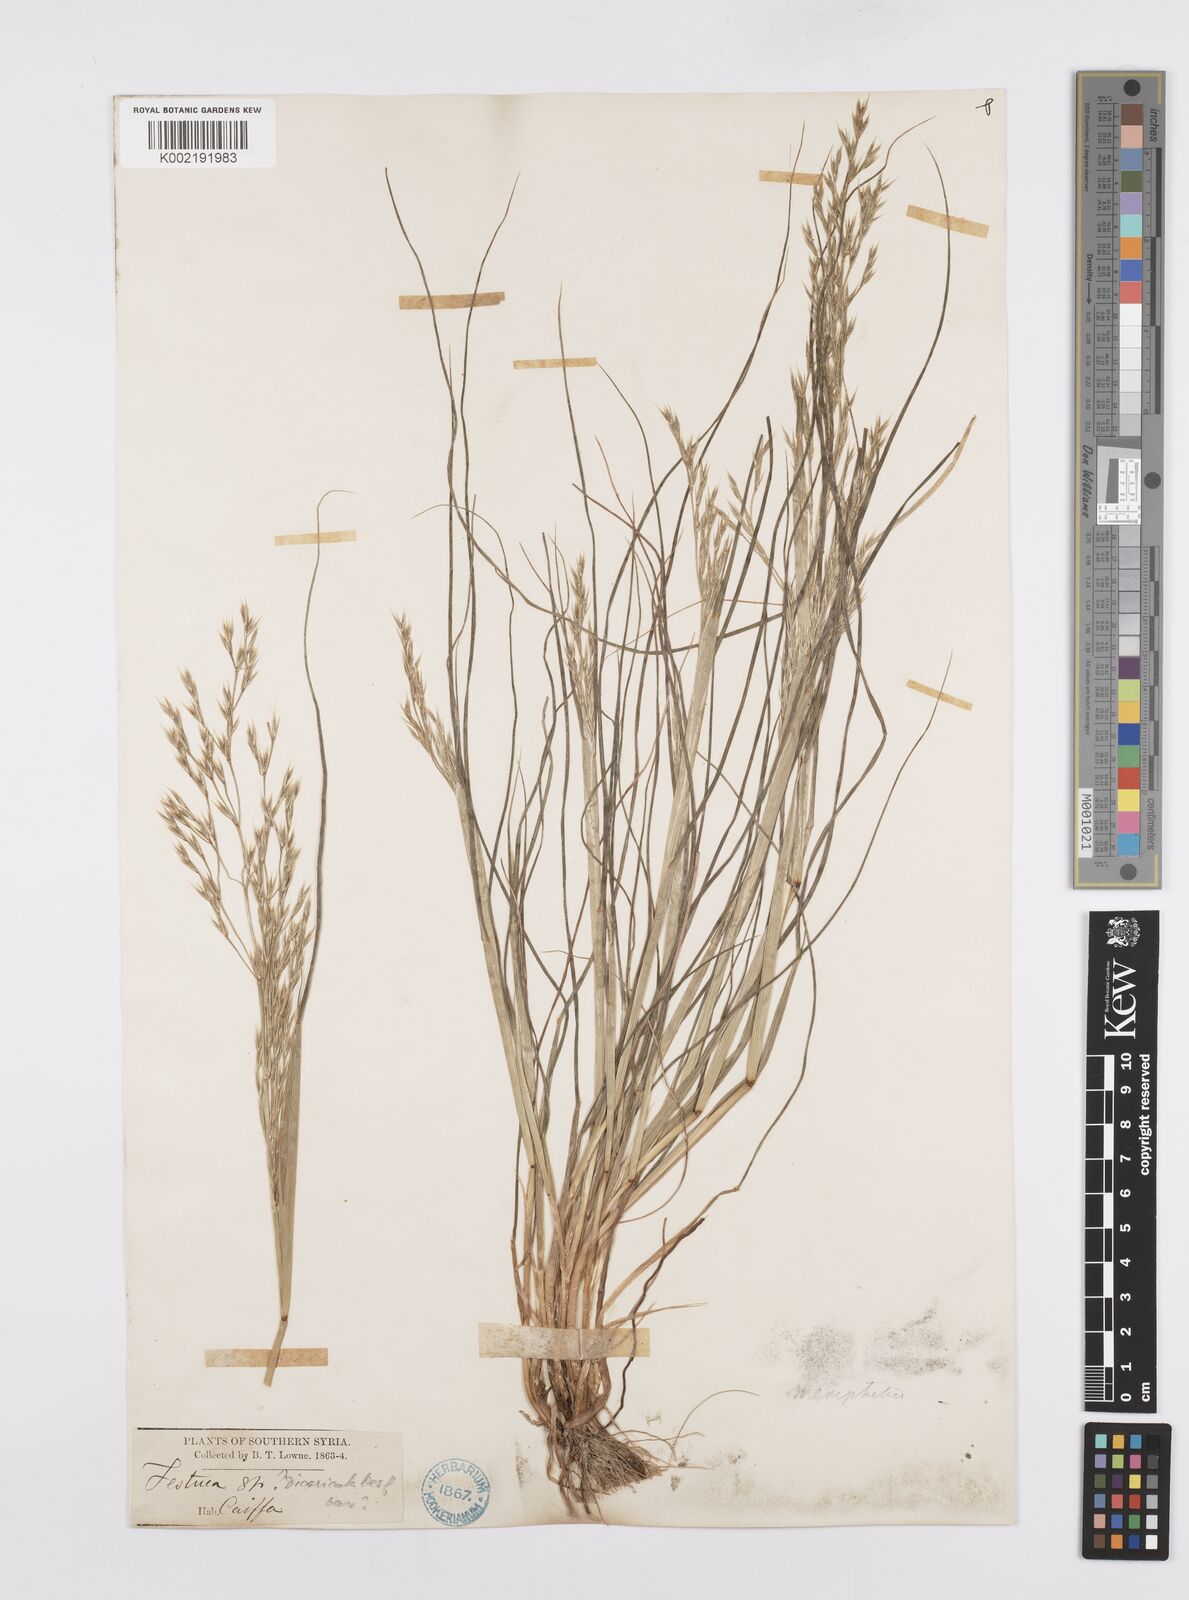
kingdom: Plantae
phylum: Tracheophyta
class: Liliopsida
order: Poales
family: Poaceae
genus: Cutandia
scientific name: Cutandia memphitica
